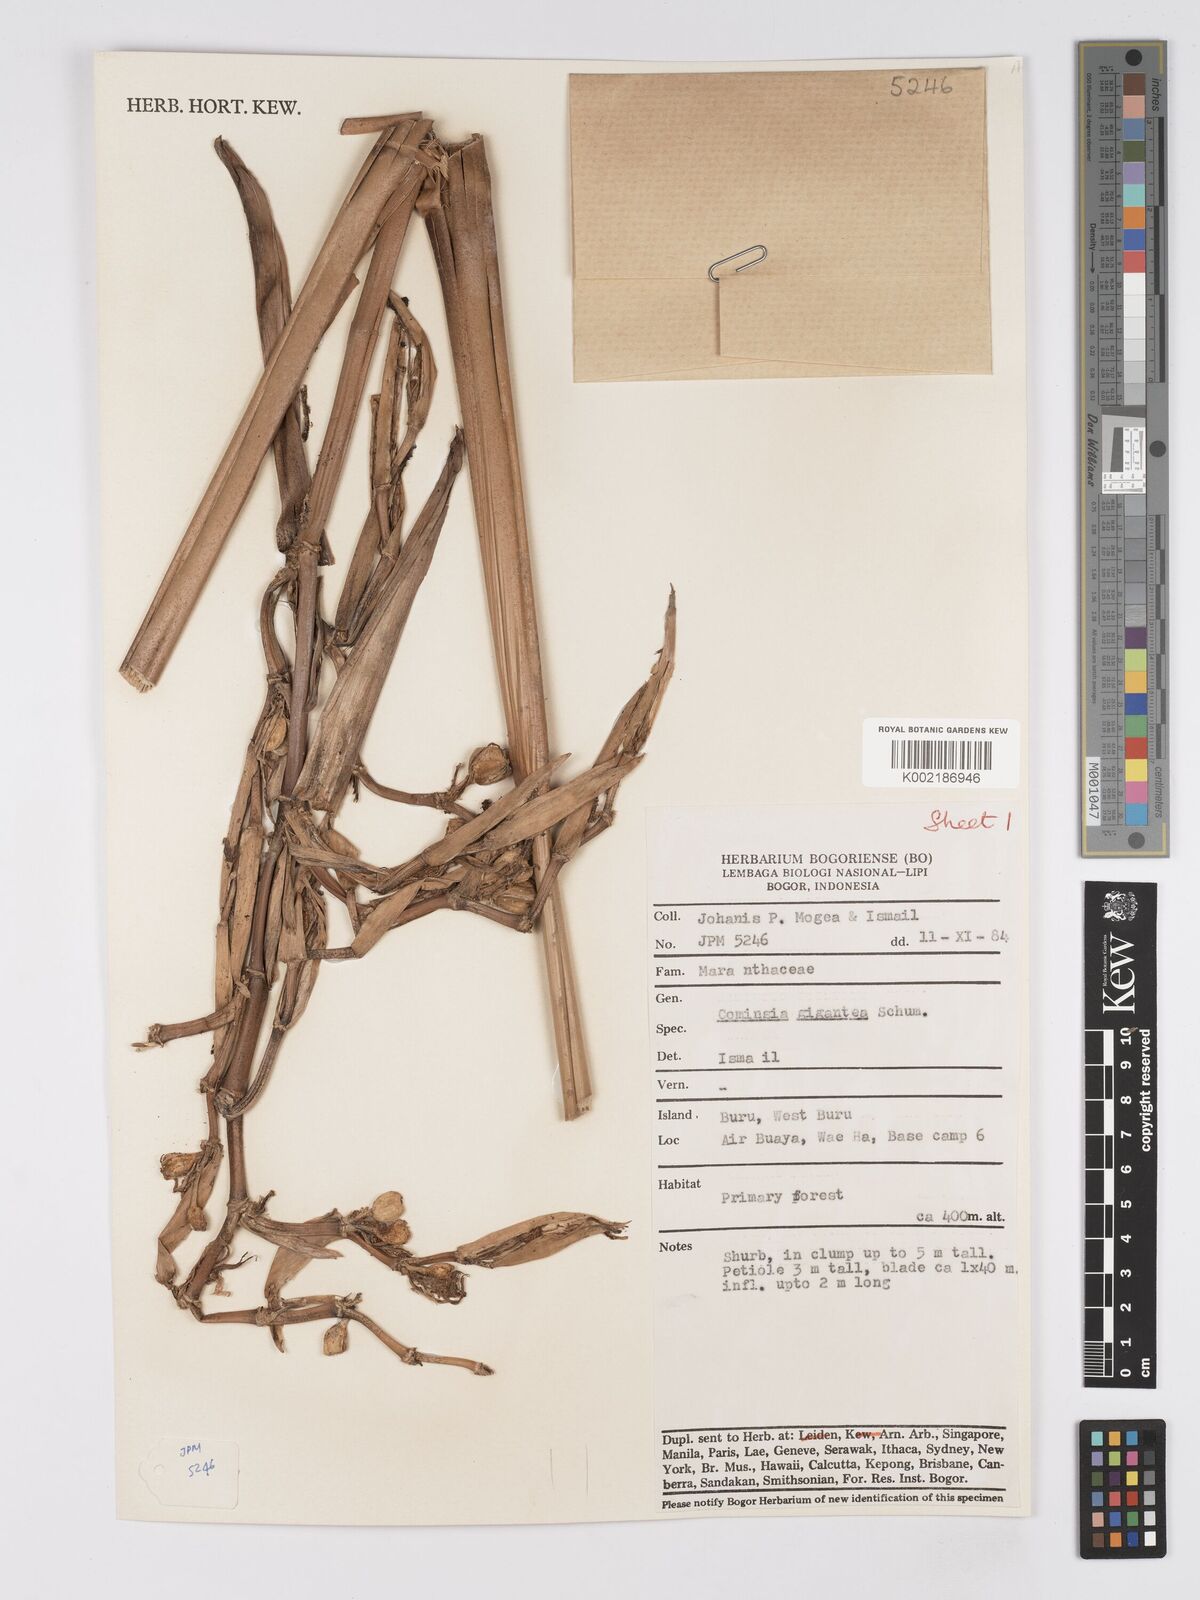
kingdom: Plantae
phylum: Tracheophyta
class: Liliopsida
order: Zingiberales
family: Marantaceae
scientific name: Marantaceae
